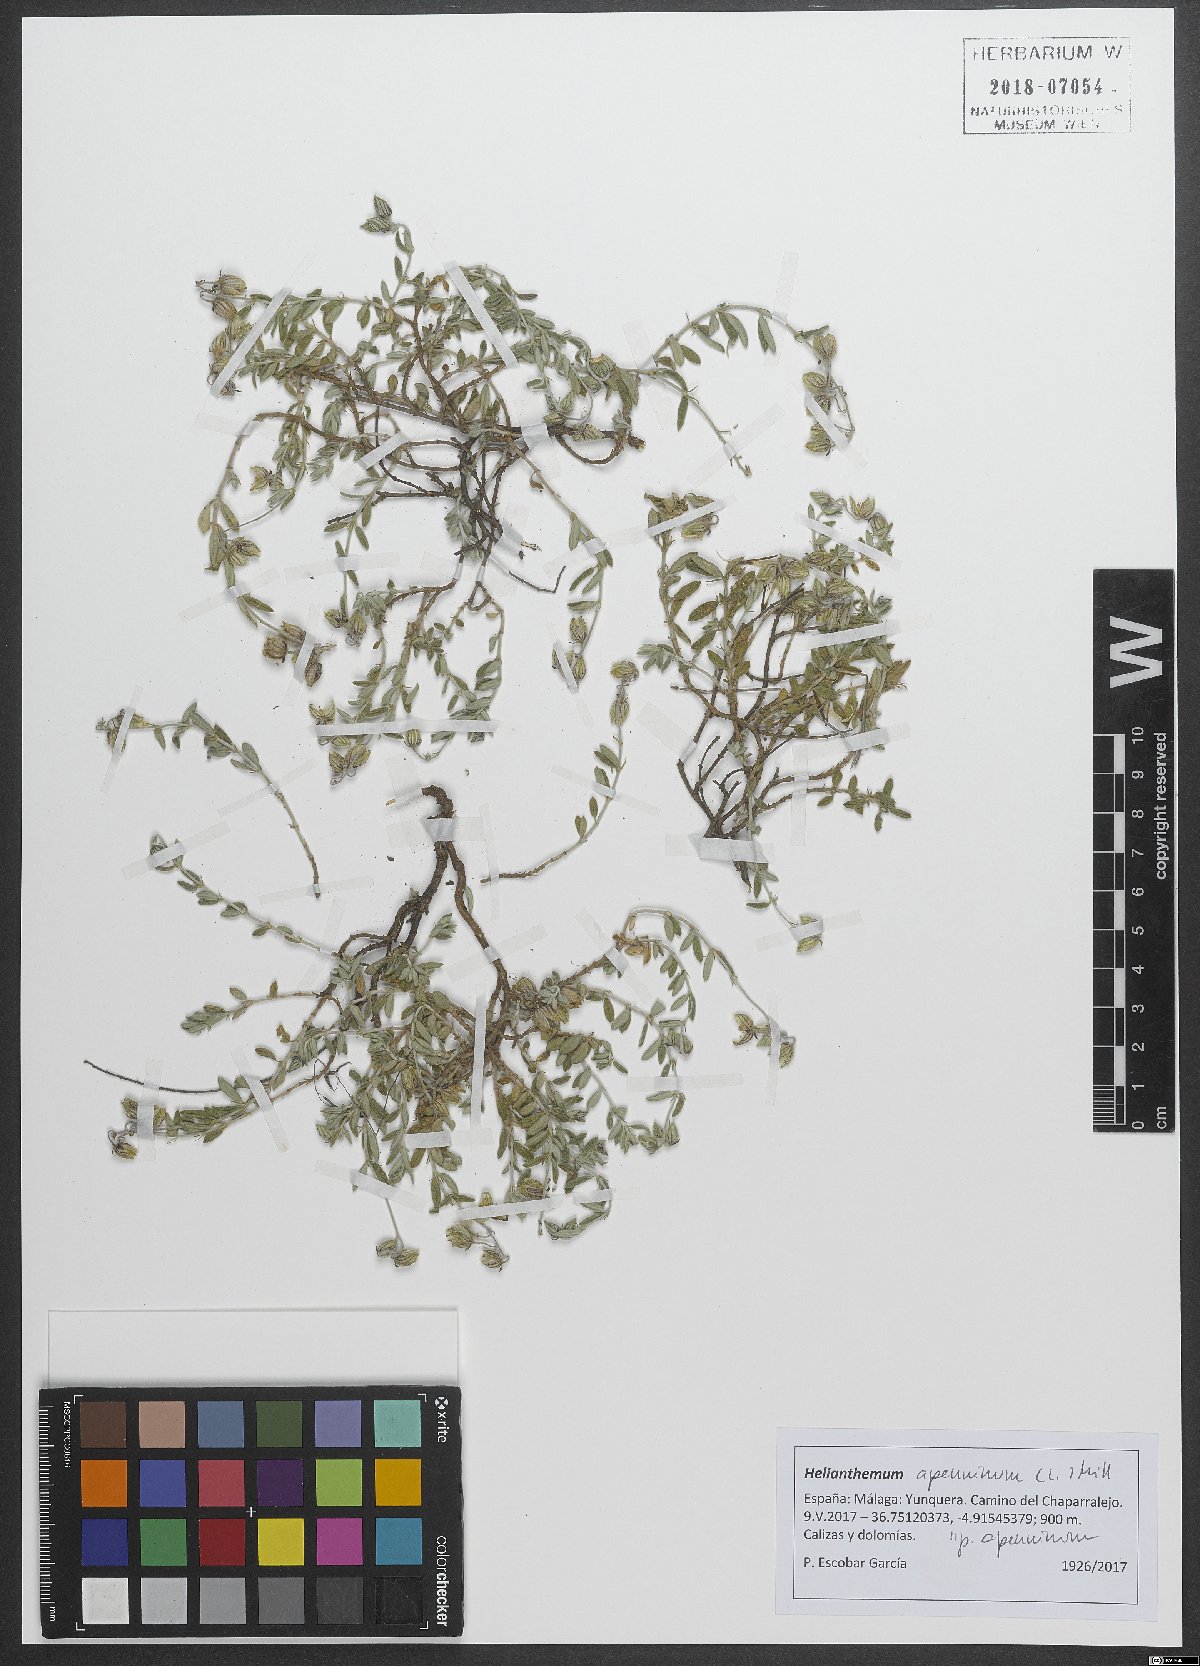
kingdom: Plantae
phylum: Tracheophyta
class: Magnoliopsida
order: Malvales
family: Cistaceae
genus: Helianthemum
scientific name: Helianthemum apenninum
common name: White rock-rose
